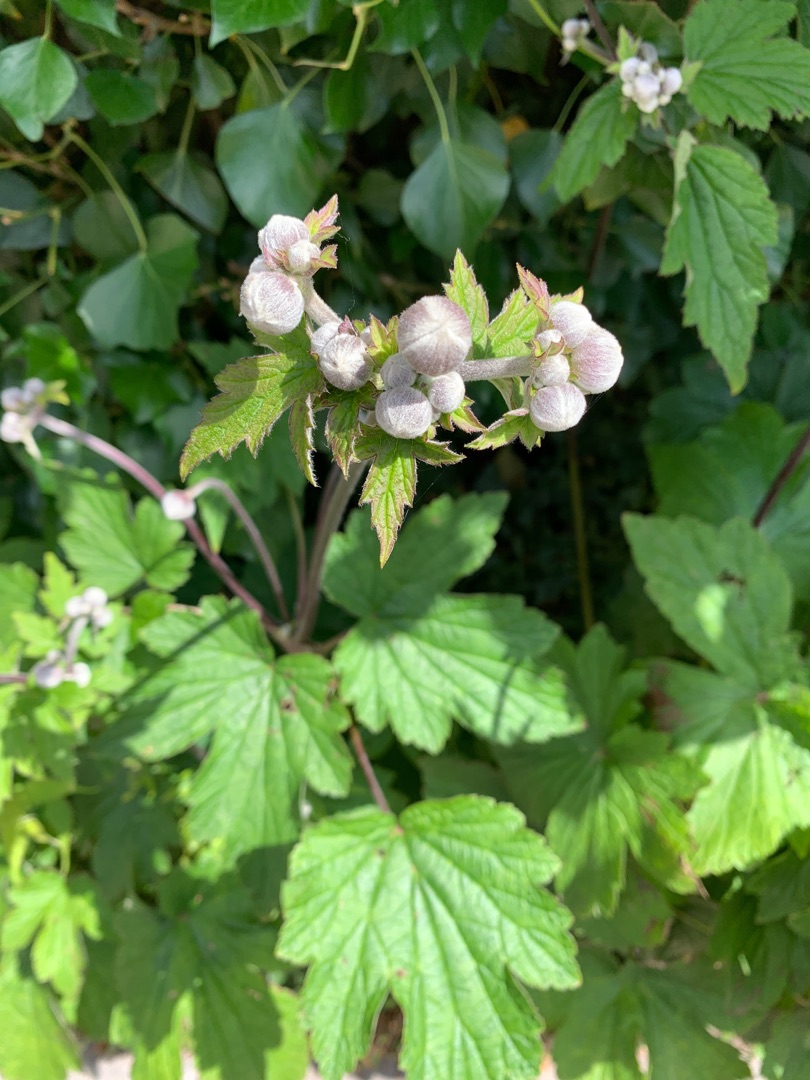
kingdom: Plantae
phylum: Tracheophyta
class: Magnoliopsida
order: Ranunculales
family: Ranunculaceae
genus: Eriocapitella
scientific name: Eriocapitella hupehensis
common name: Høst-anemone
